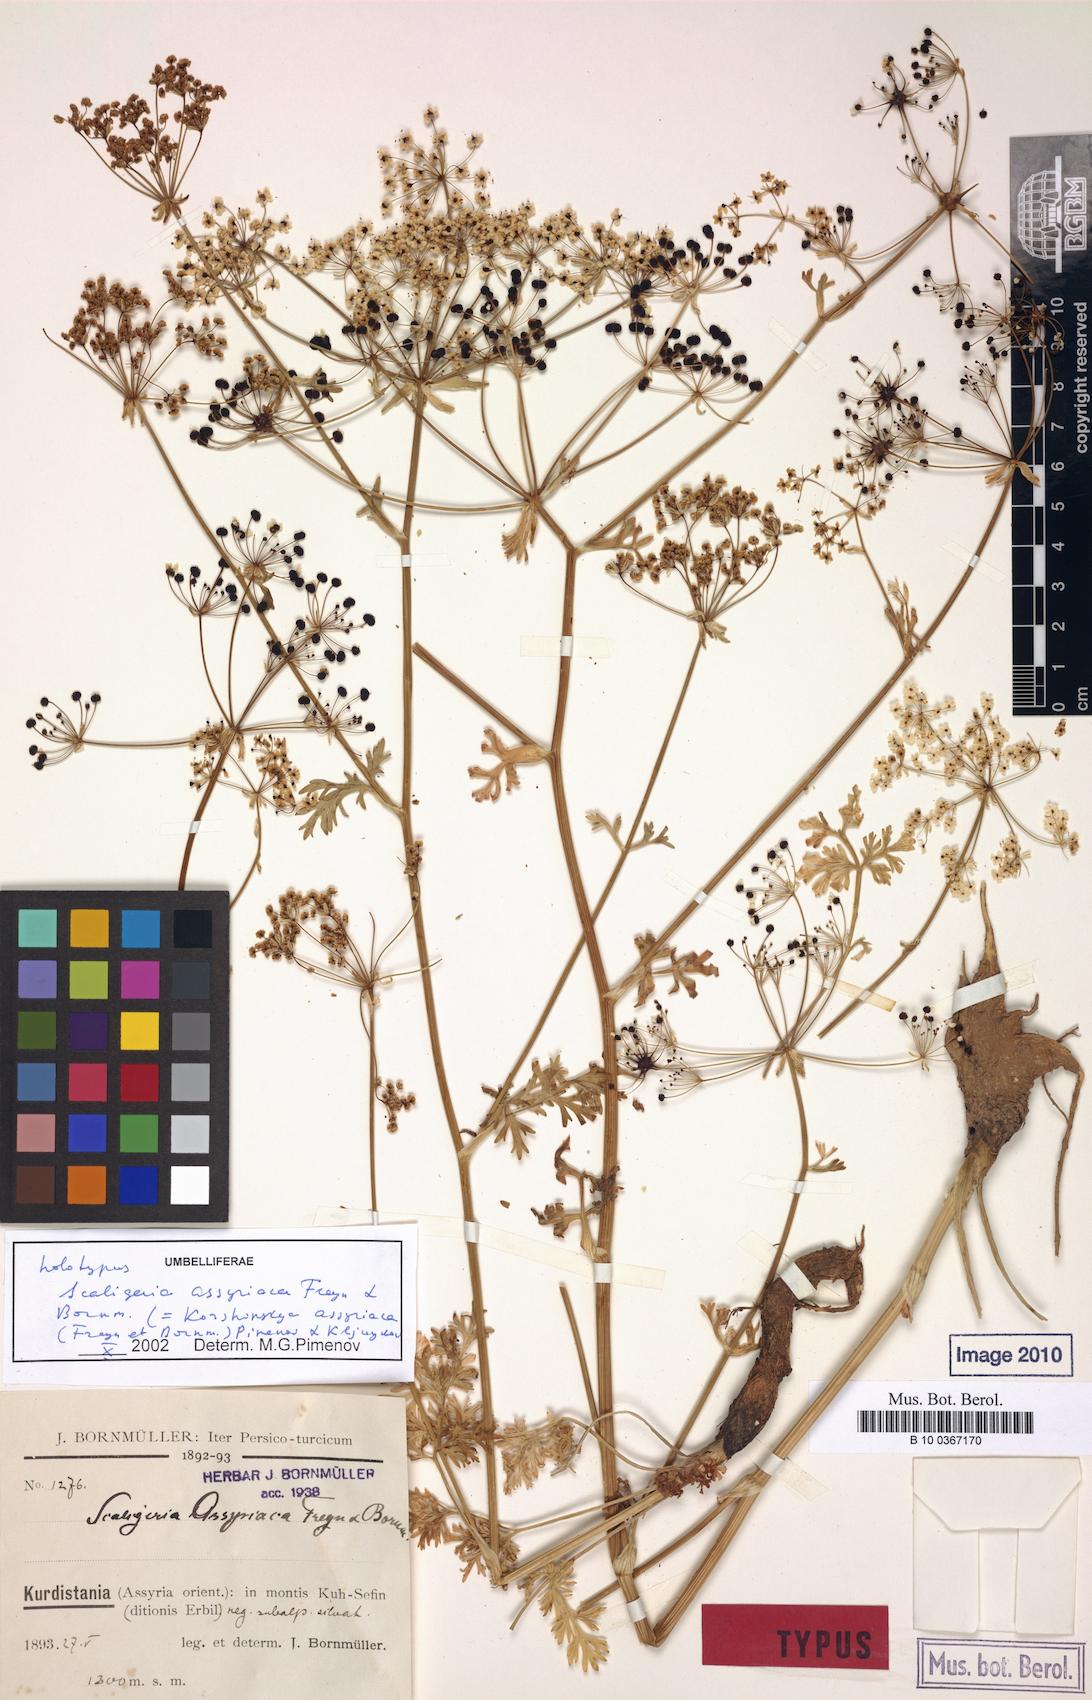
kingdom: Plantae
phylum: Tracheophyta
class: Magnoliopsida
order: Apiales
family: Apiaceae
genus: Korshinskia
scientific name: Korshinskia assyriaca
